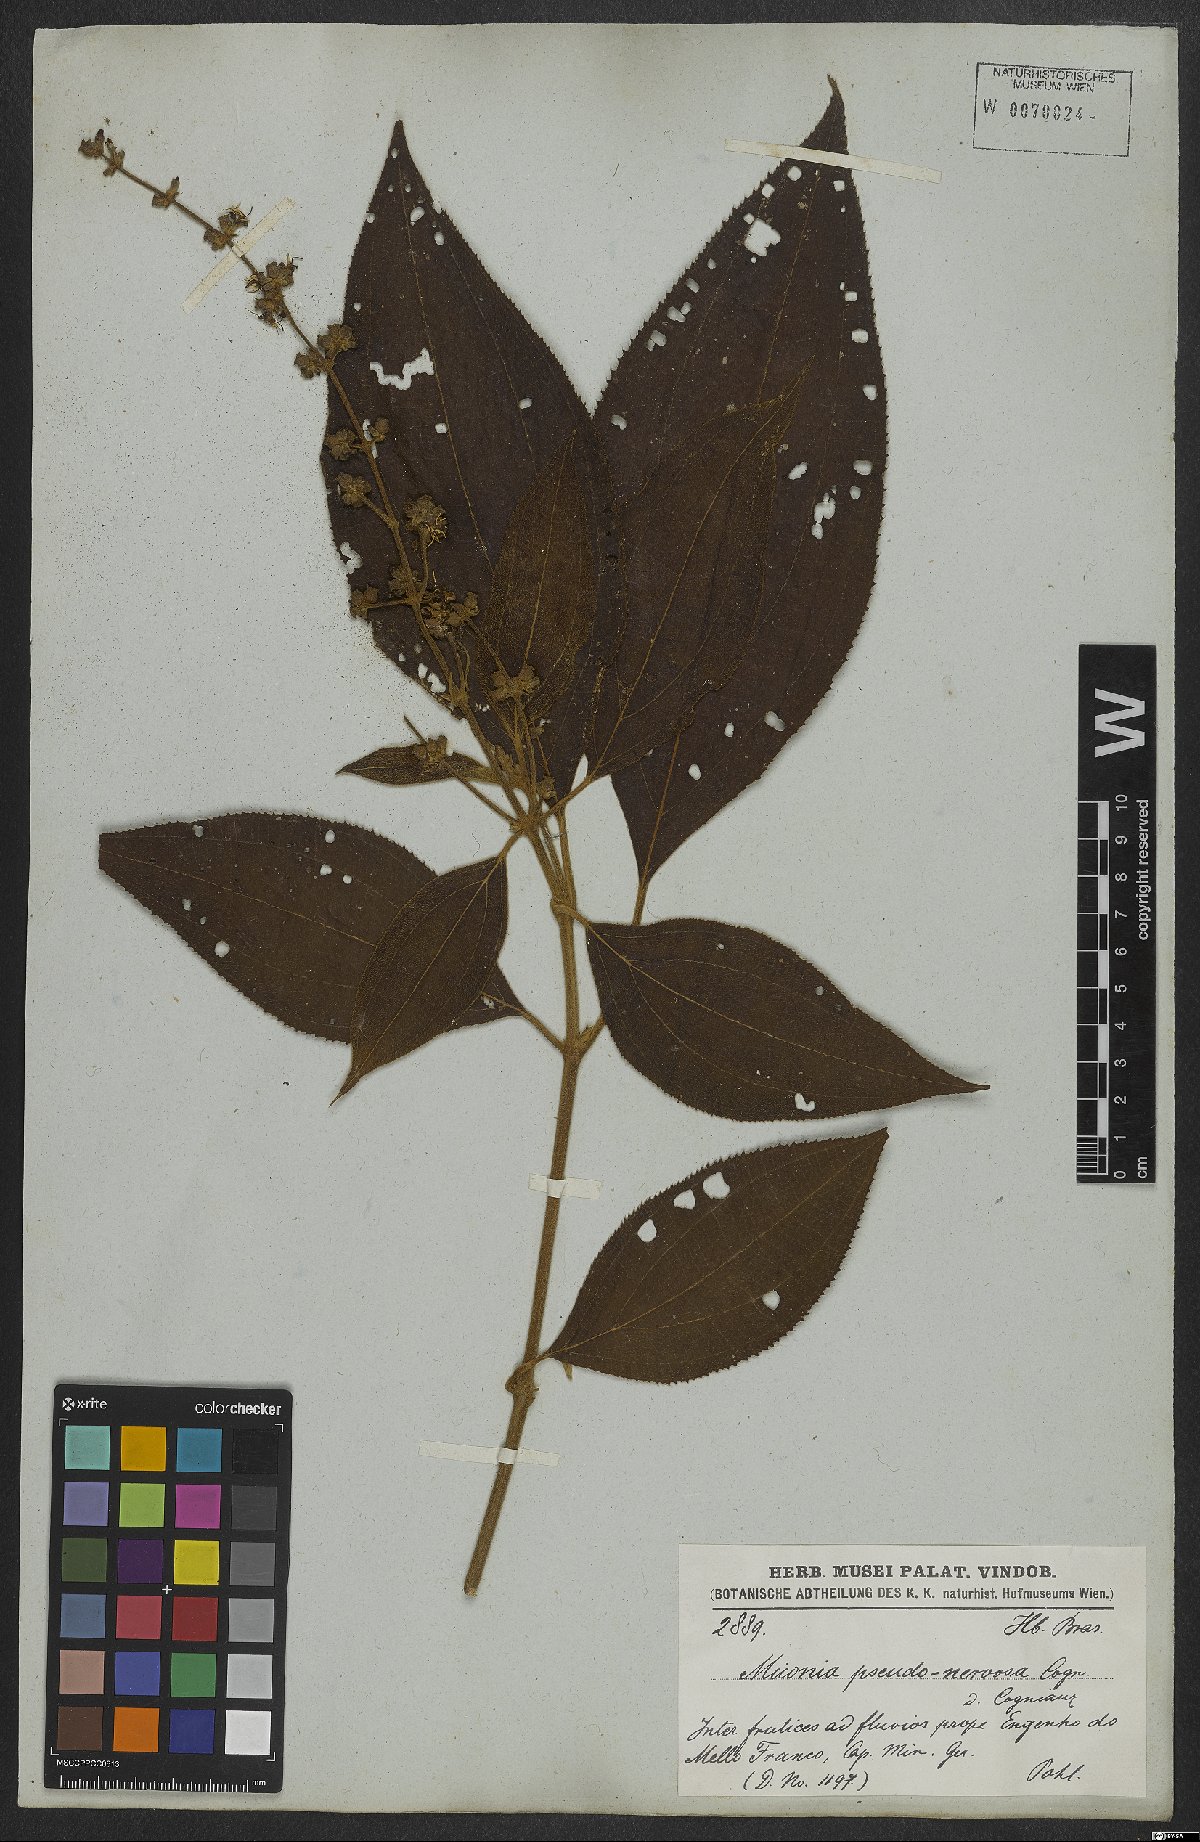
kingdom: Plantae
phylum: Tracheophyta
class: Magnoliopsida
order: Myrtales
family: Melastomataceae
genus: Miconia
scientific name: Miconia pseudonervosa
